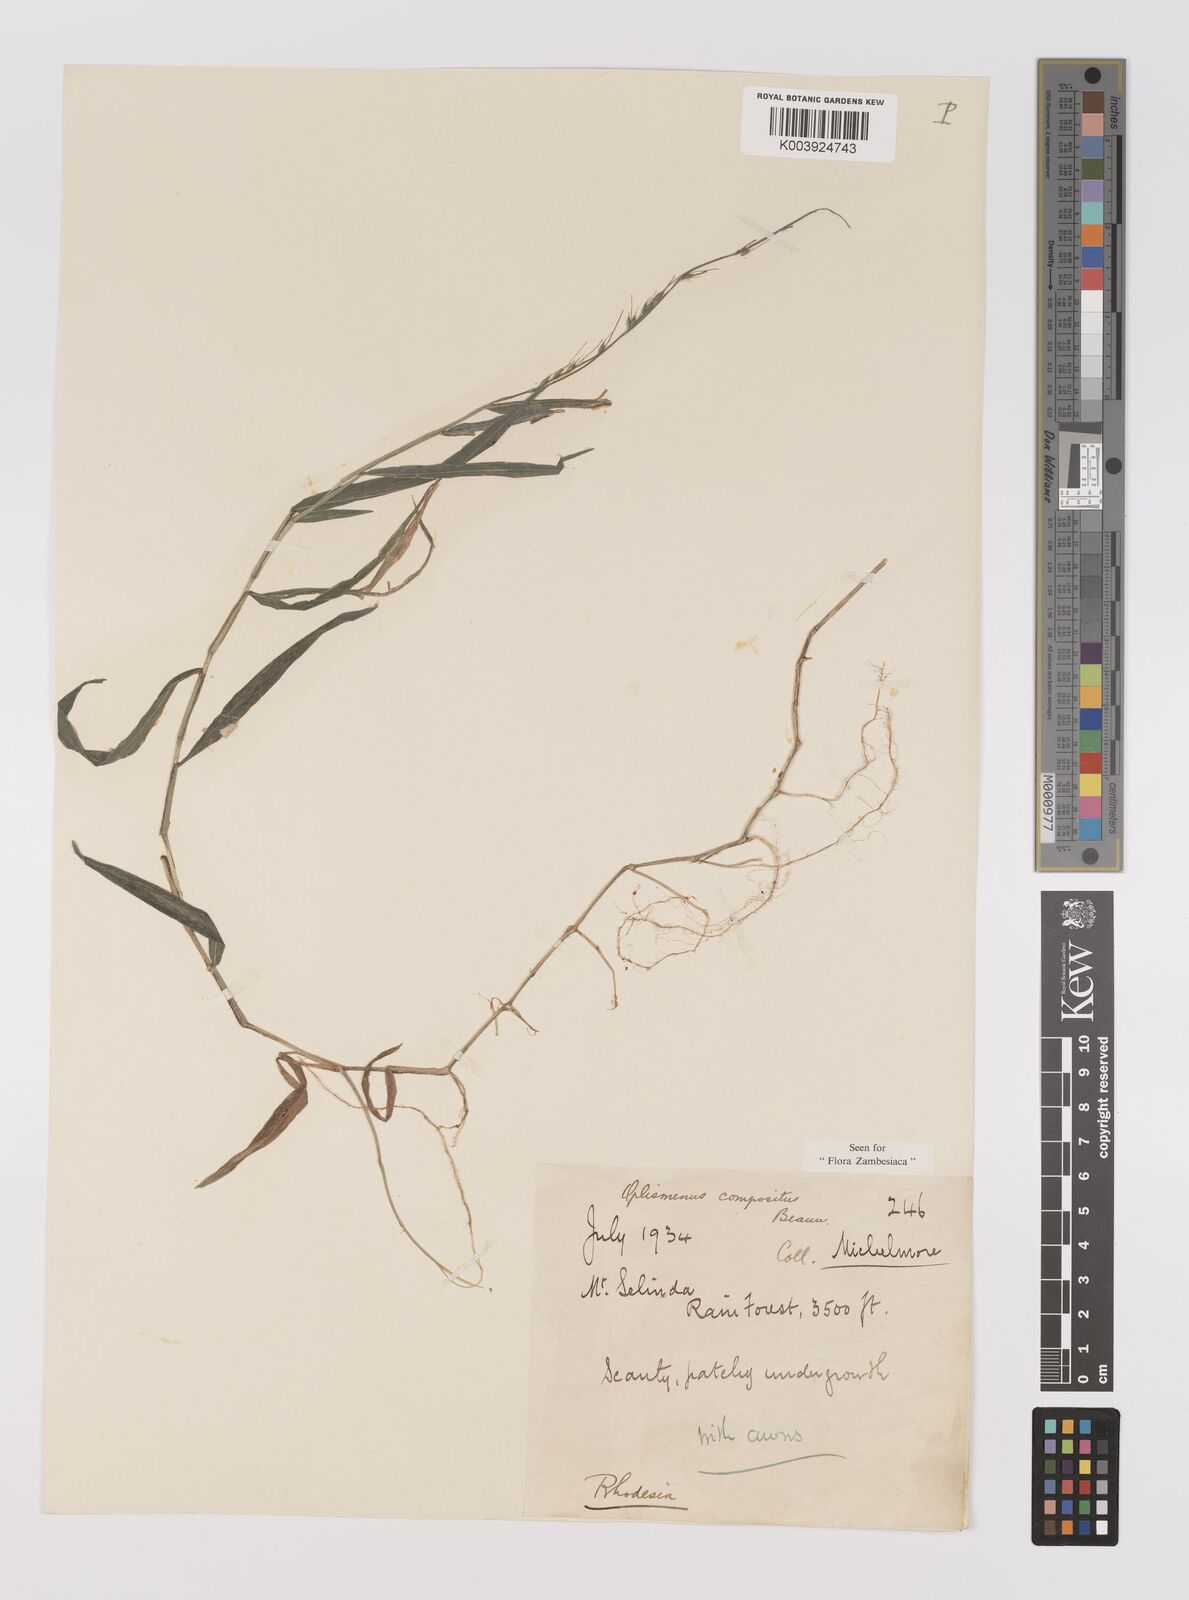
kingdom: Plantae
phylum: Tracheophyta
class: Liliopsida
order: Poales
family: Poaceae
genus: Oplismenus
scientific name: Oplismenus compositus
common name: Running mountain grass
